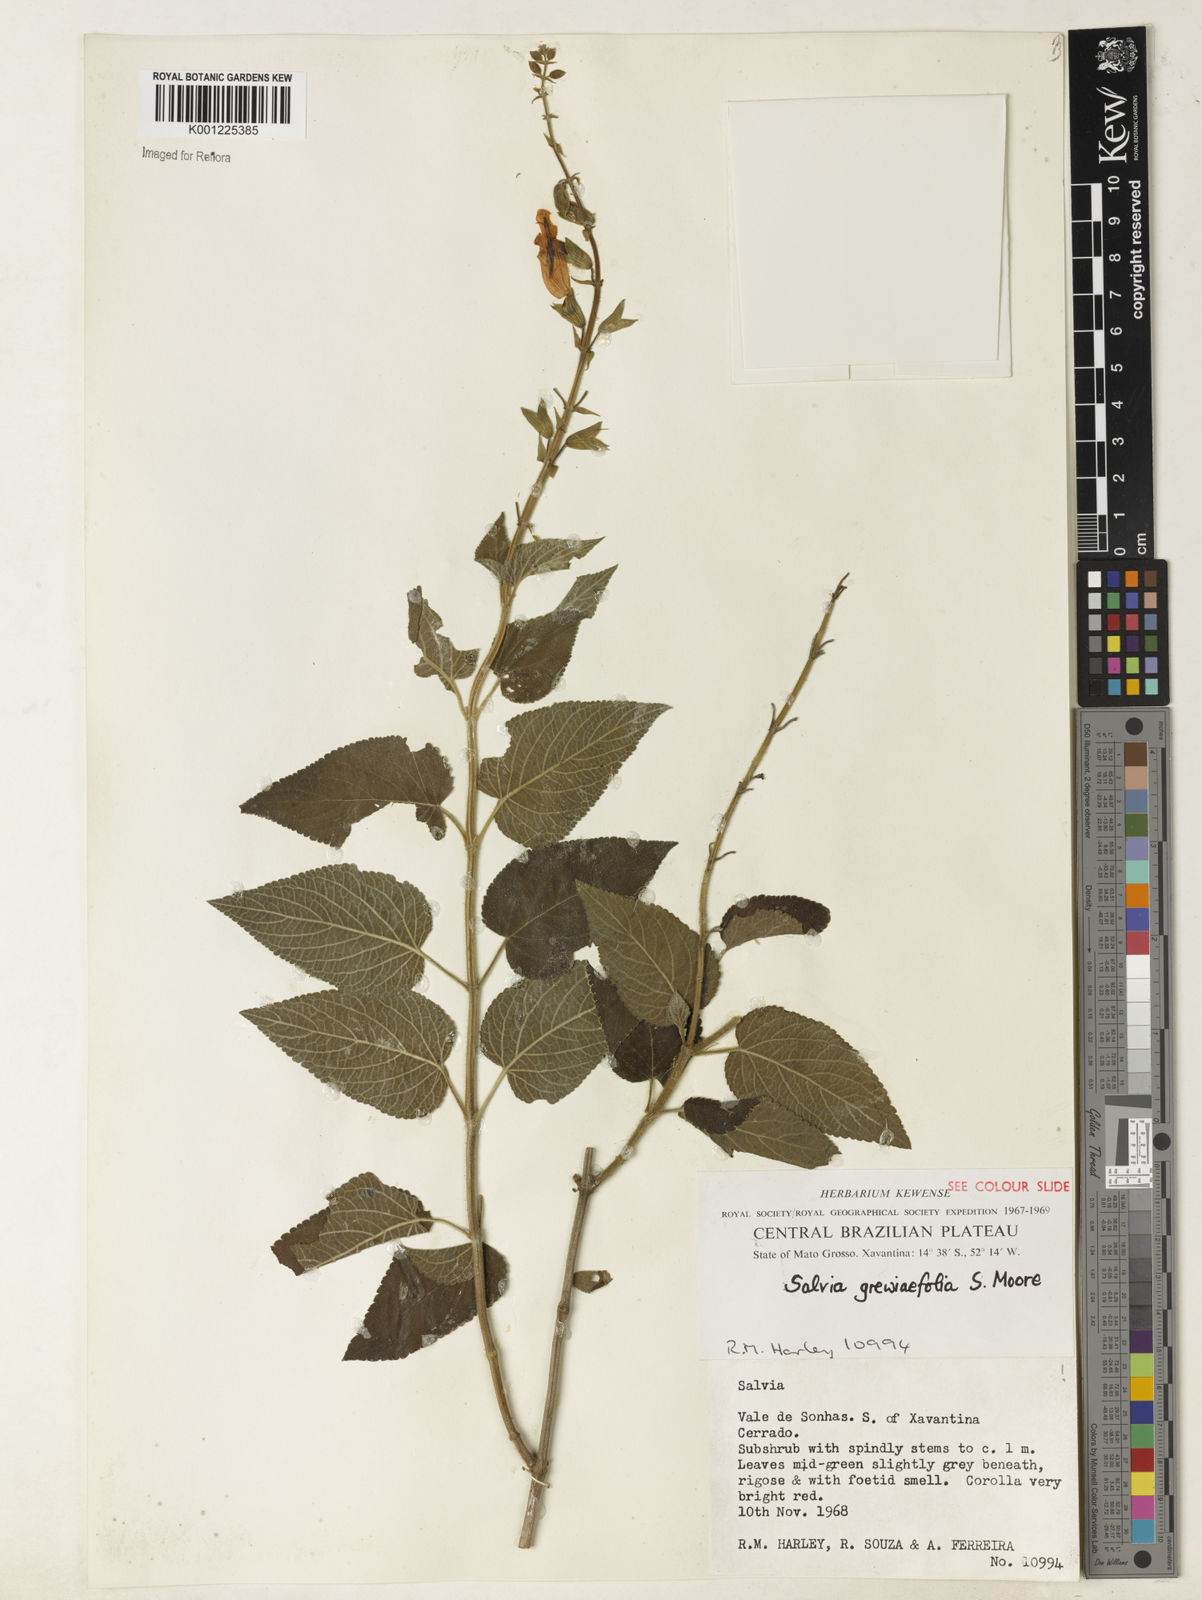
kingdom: Plantae
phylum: Tracheophyta
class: Magnoliopsida
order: Lamiales
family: Lamiaceae
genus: Salvia
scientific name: Salvia grewiifolia
